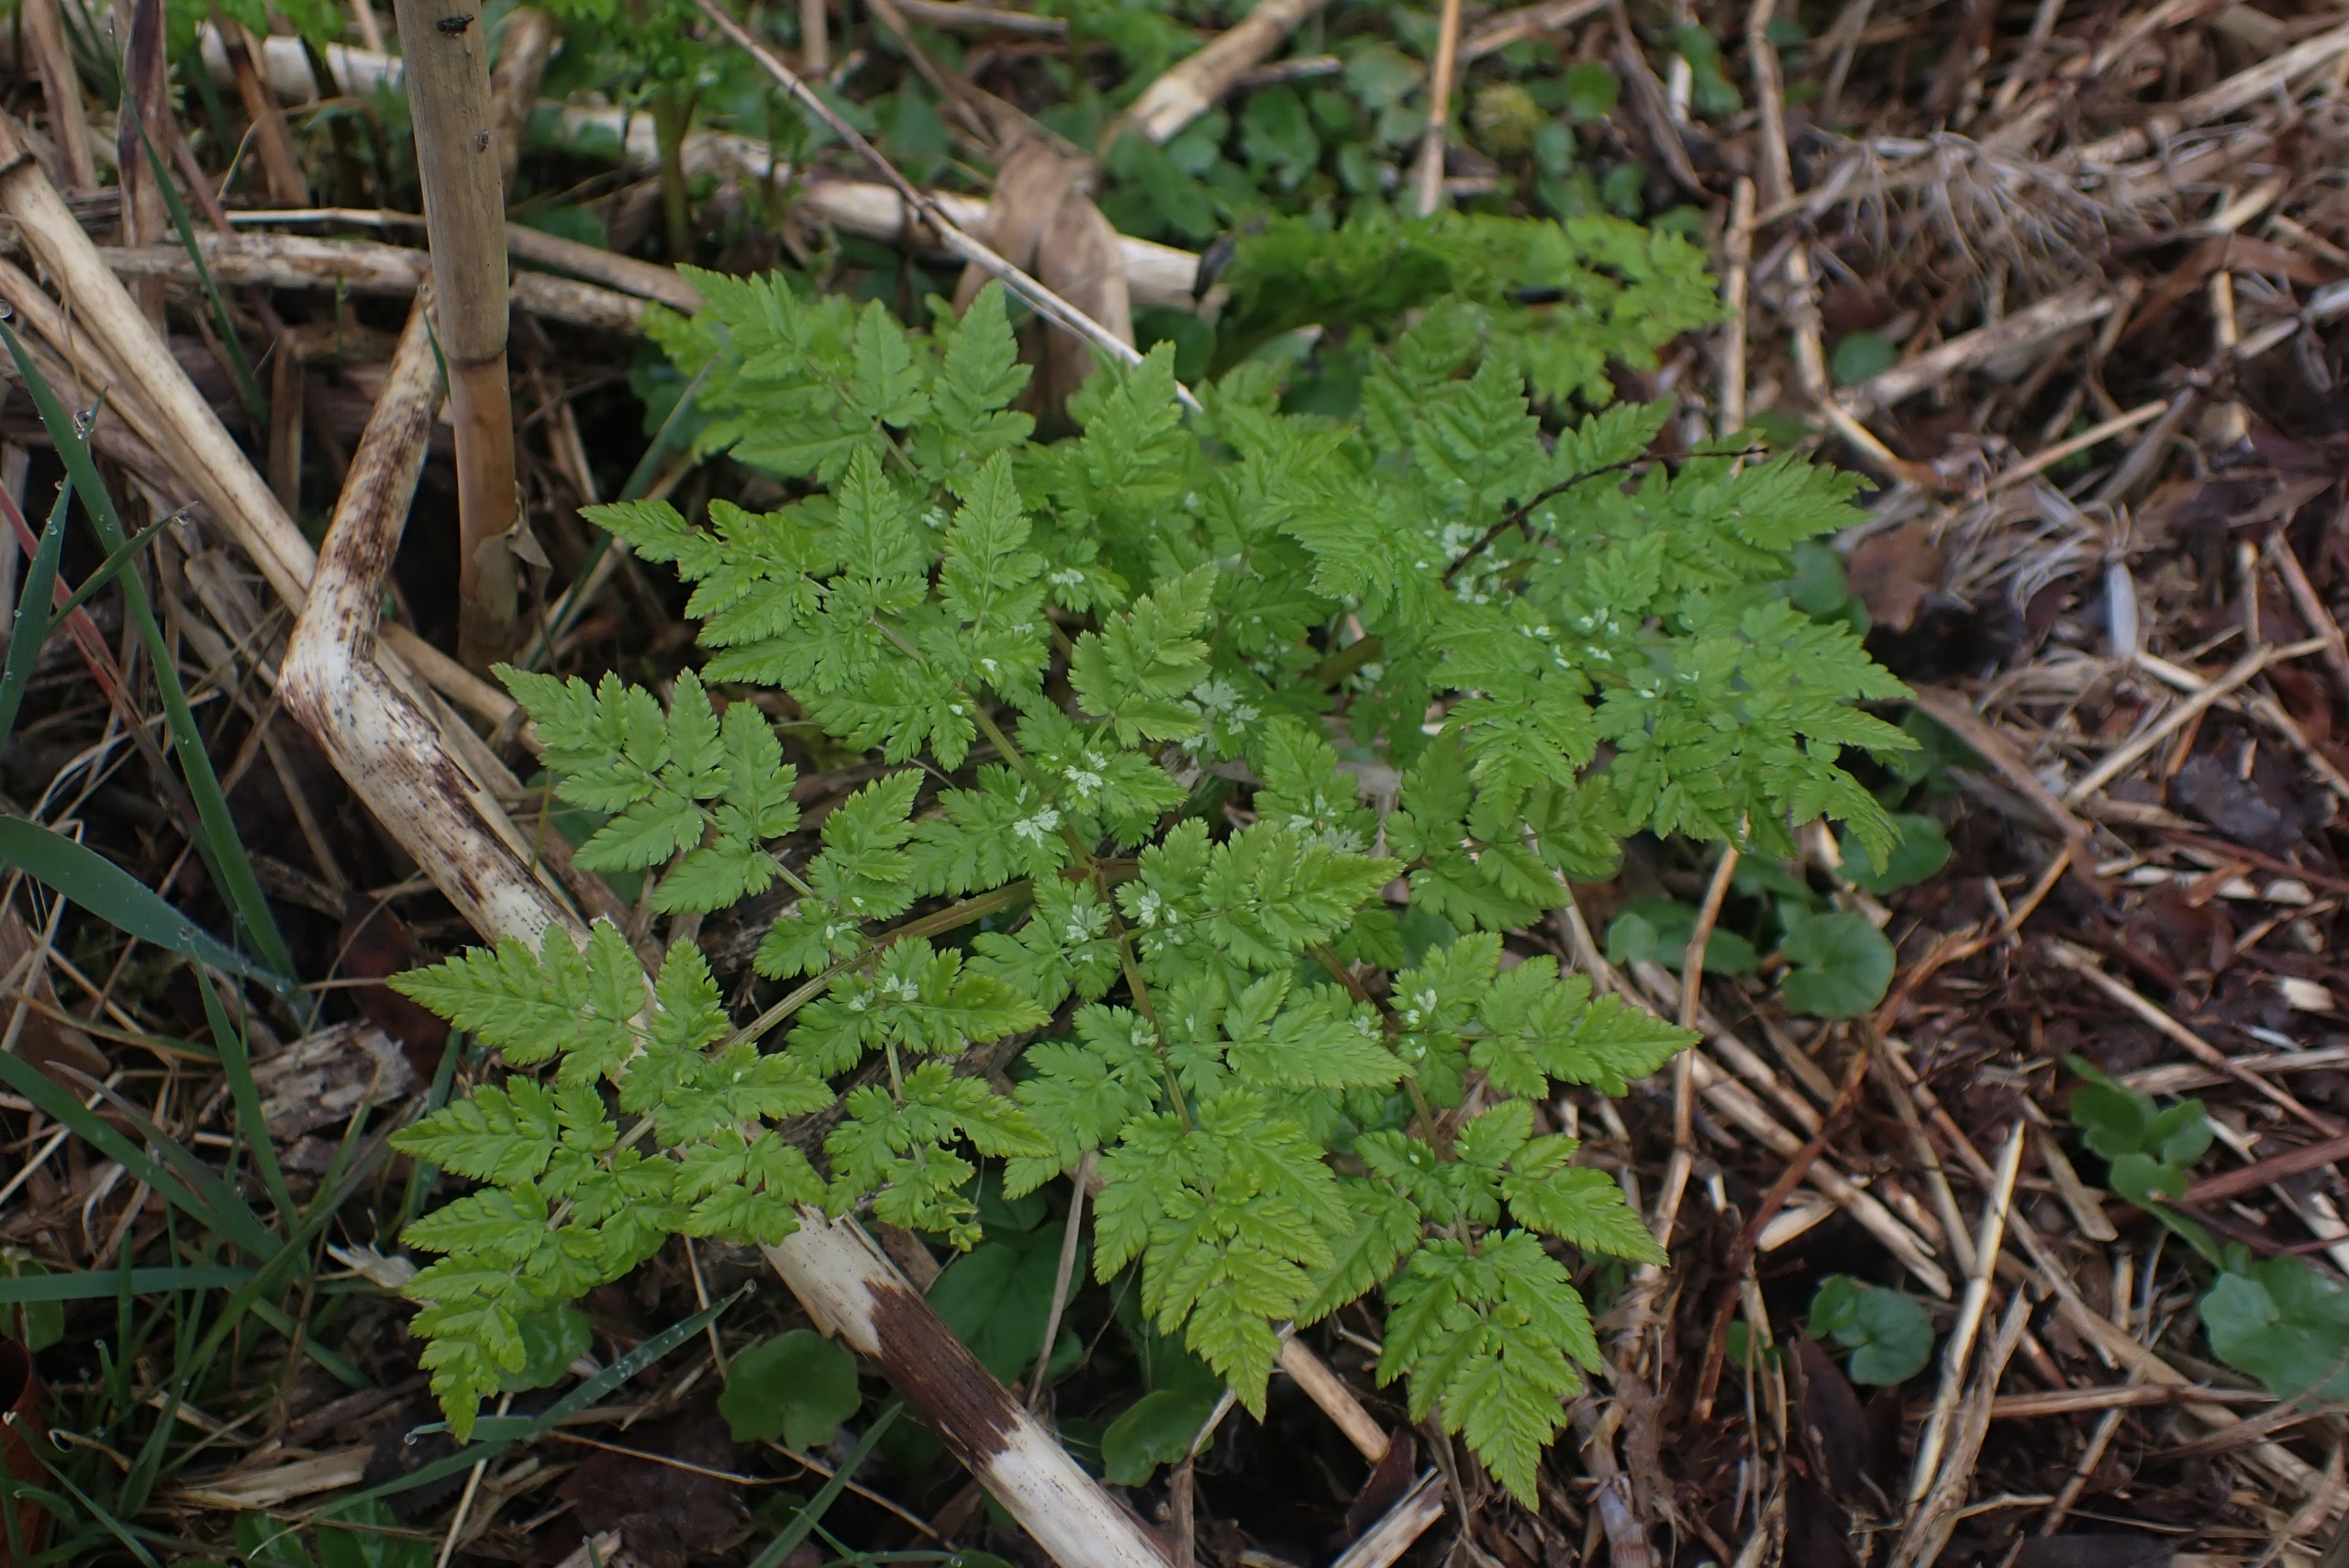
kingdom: Plantae
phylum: Tracheophyta
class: Magnoliopsida
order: Apiales
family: Apiaceae
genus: Myrrhis
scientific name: Myrrhis odorata
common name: Sødskærm
